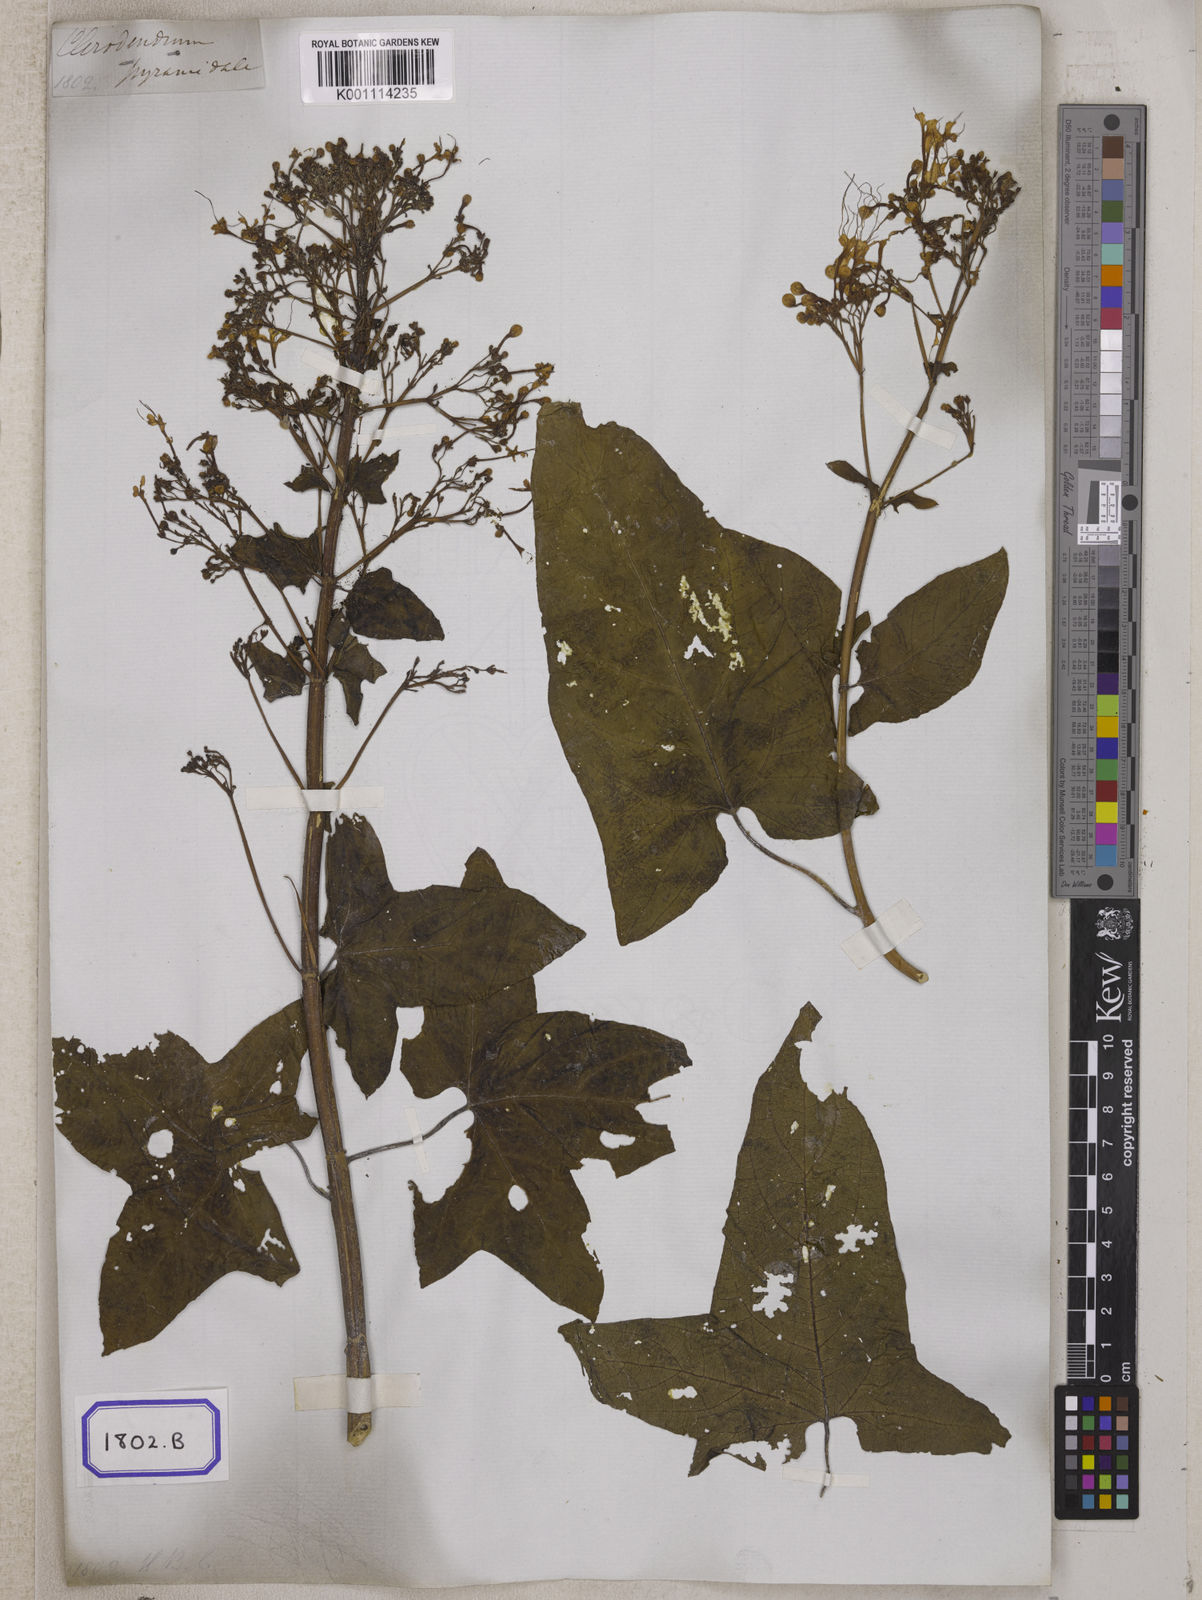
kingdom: Plantae
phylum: Tracheophyta
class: Magnoliopsida
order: Lamiales
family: Lamiaceae
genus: Clerodendrum
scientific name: Clerodendrum paniculatum
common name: Pagoda-flower
